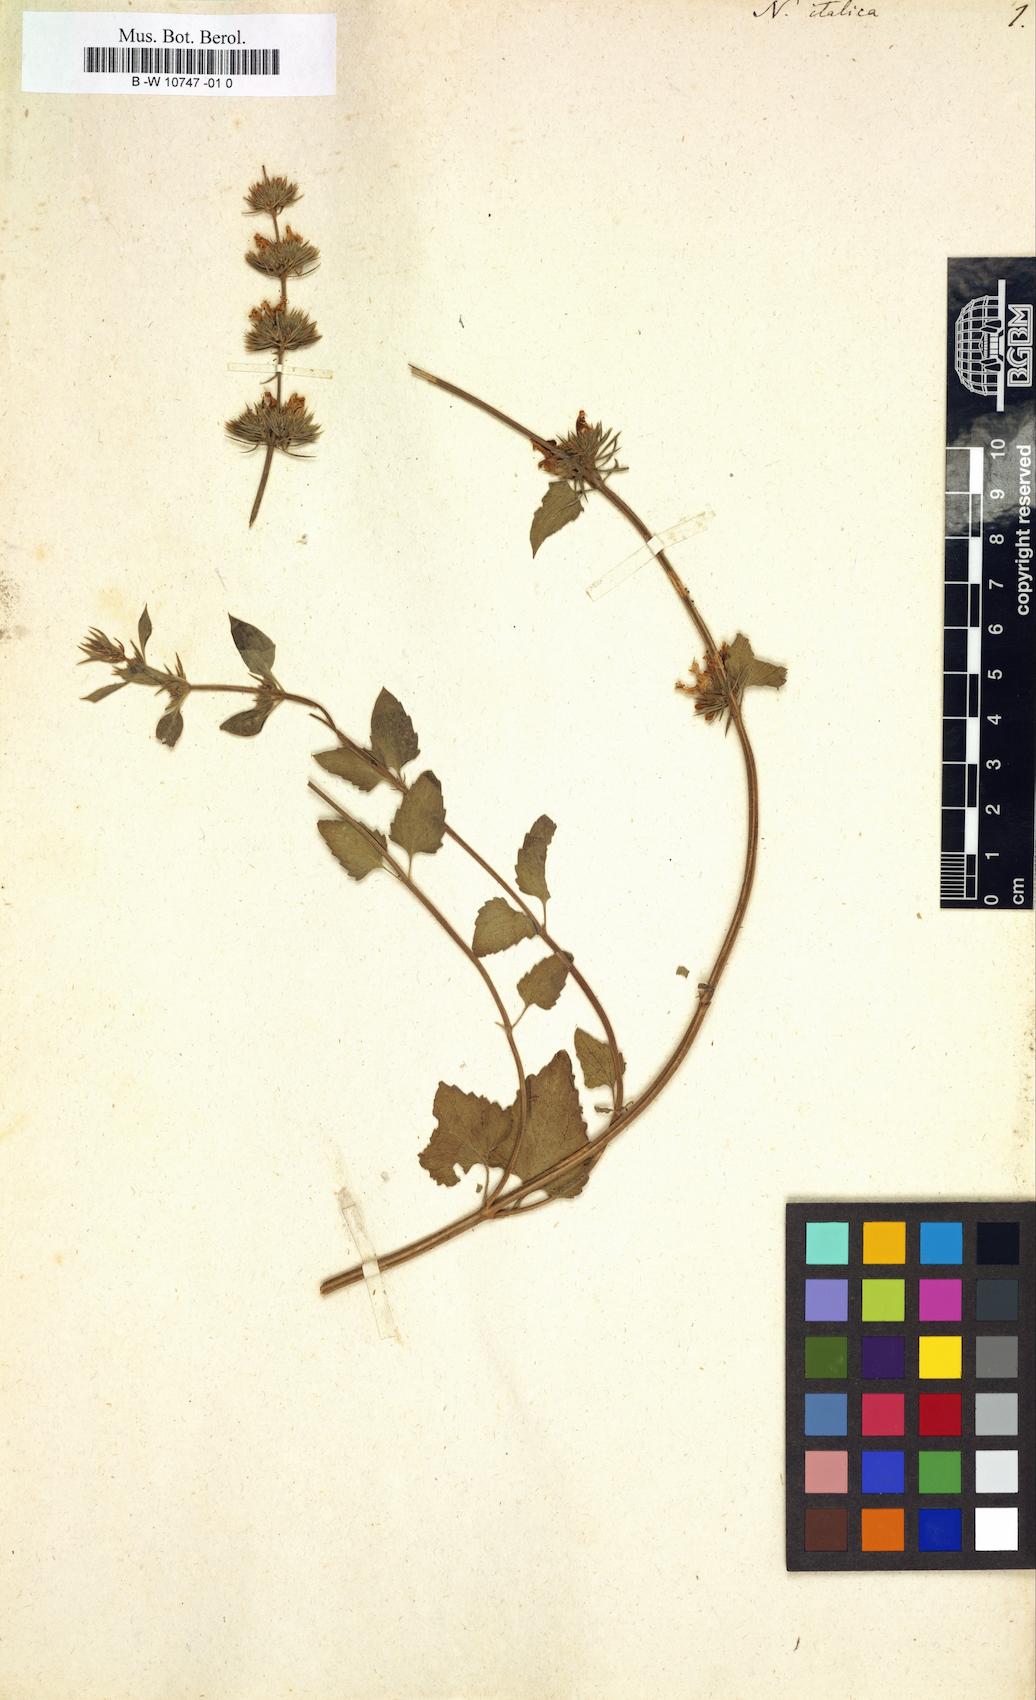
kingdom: Plantae
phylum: Tracheophyta
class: Magnoliopsida
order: Lamiales
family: Lamiaceae
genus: Nepeta
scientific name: Nepeta italica
